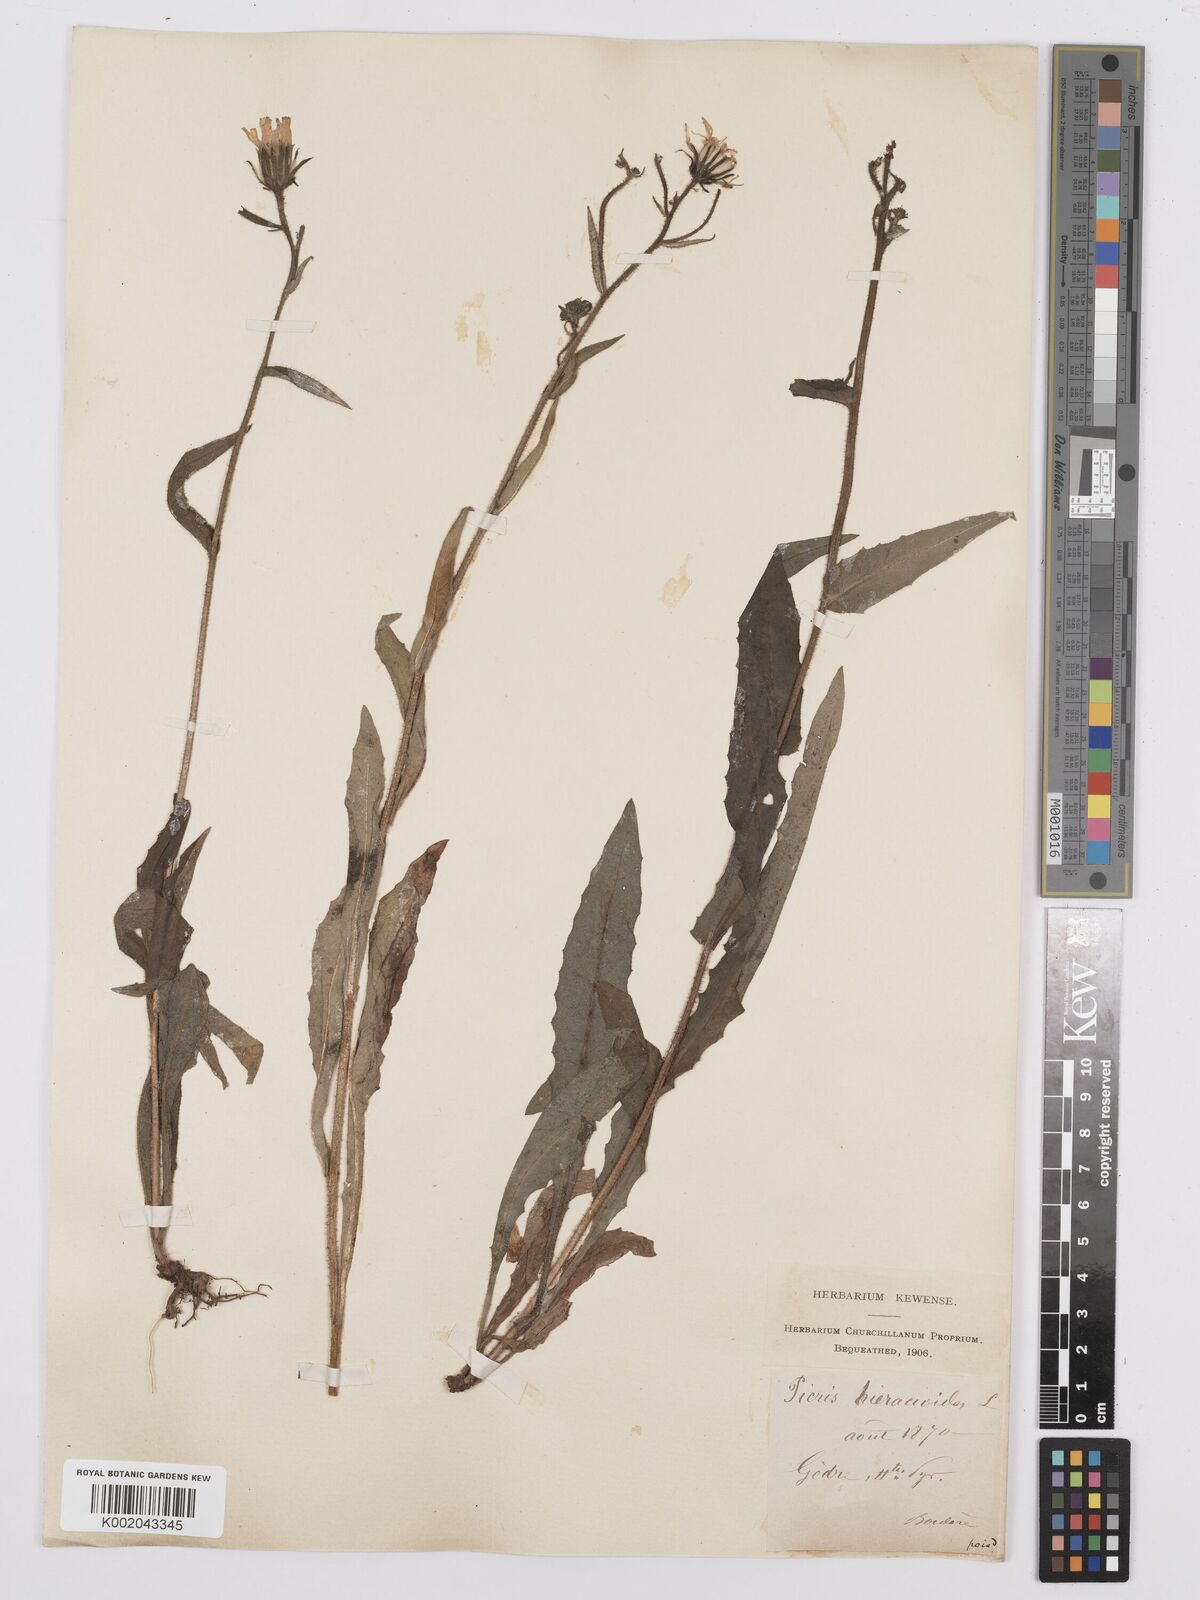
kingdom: Plantae
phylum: Tracheophyta
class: Magnoliopsida
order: Asterales
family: Asteraceae
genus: Picris
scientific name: Picris hieracioides
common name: Hawkweed oxtongue
